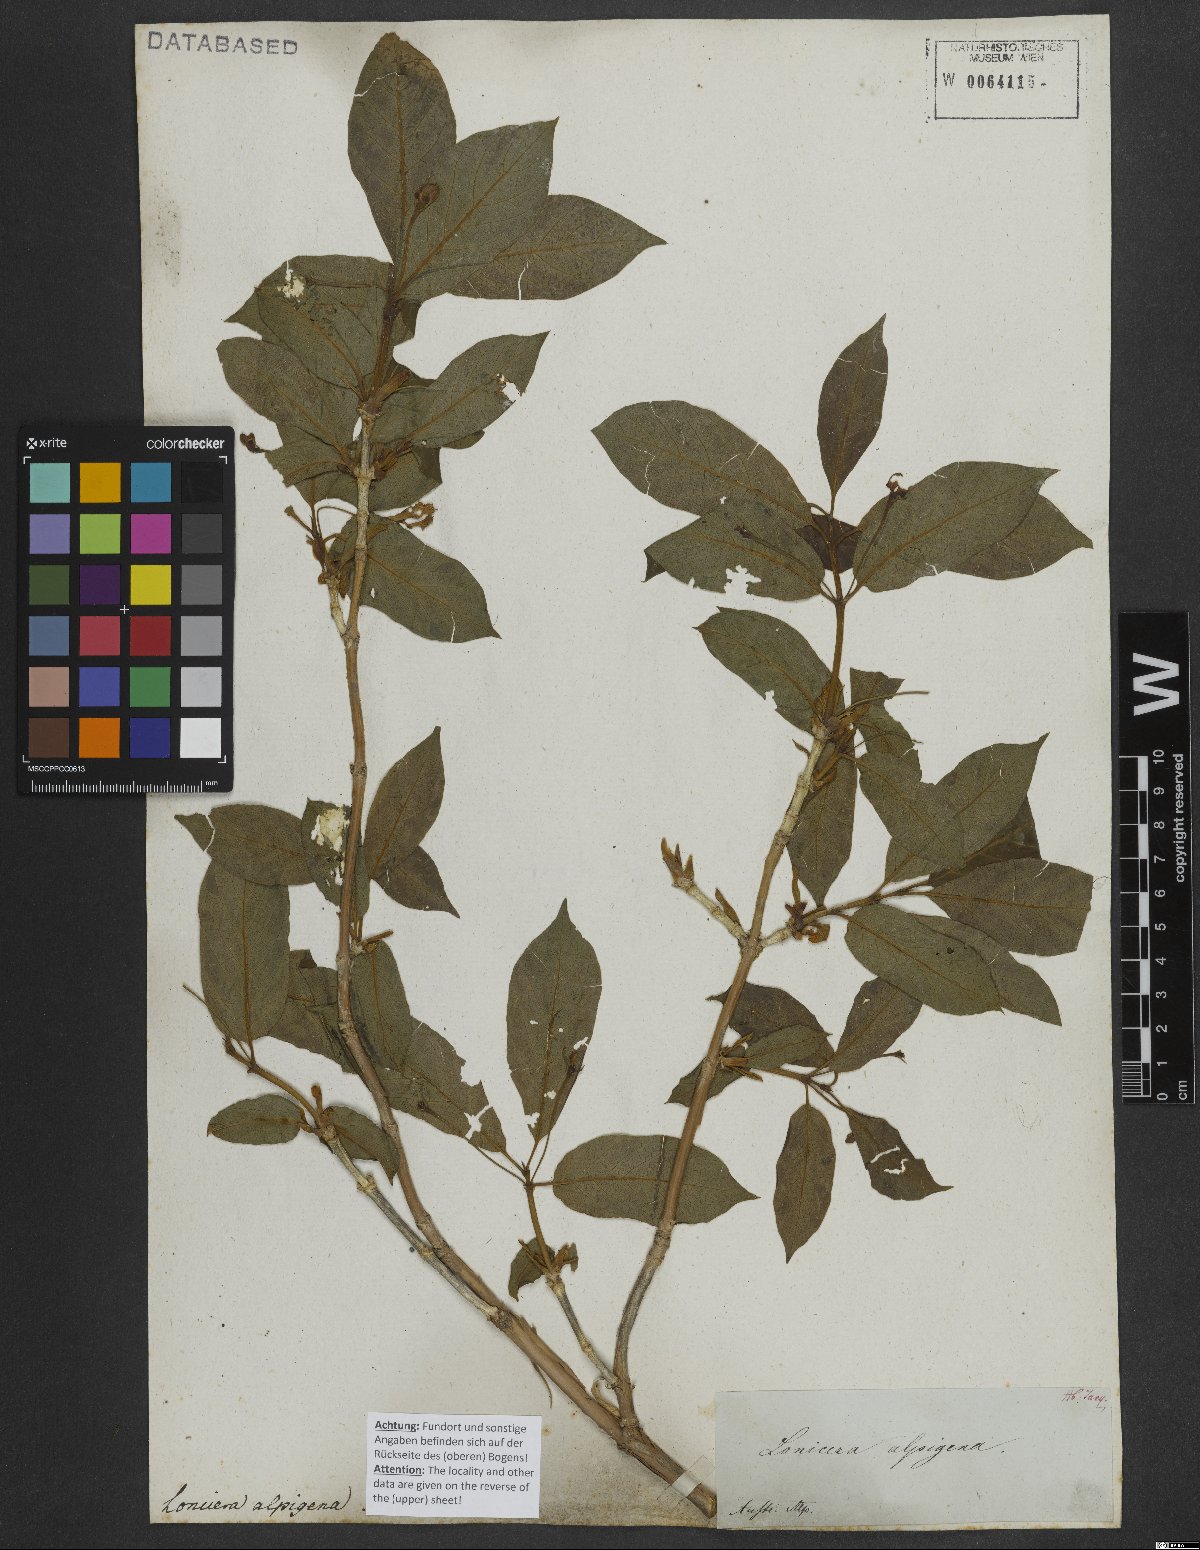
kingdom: Plantae
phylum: Tracheophyta
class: Magnoliopsida
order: Dipsacales
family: Caprifoliaceae
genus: Lonicera
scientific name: Lonicera alpigena
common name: Alpine honeysuckle
